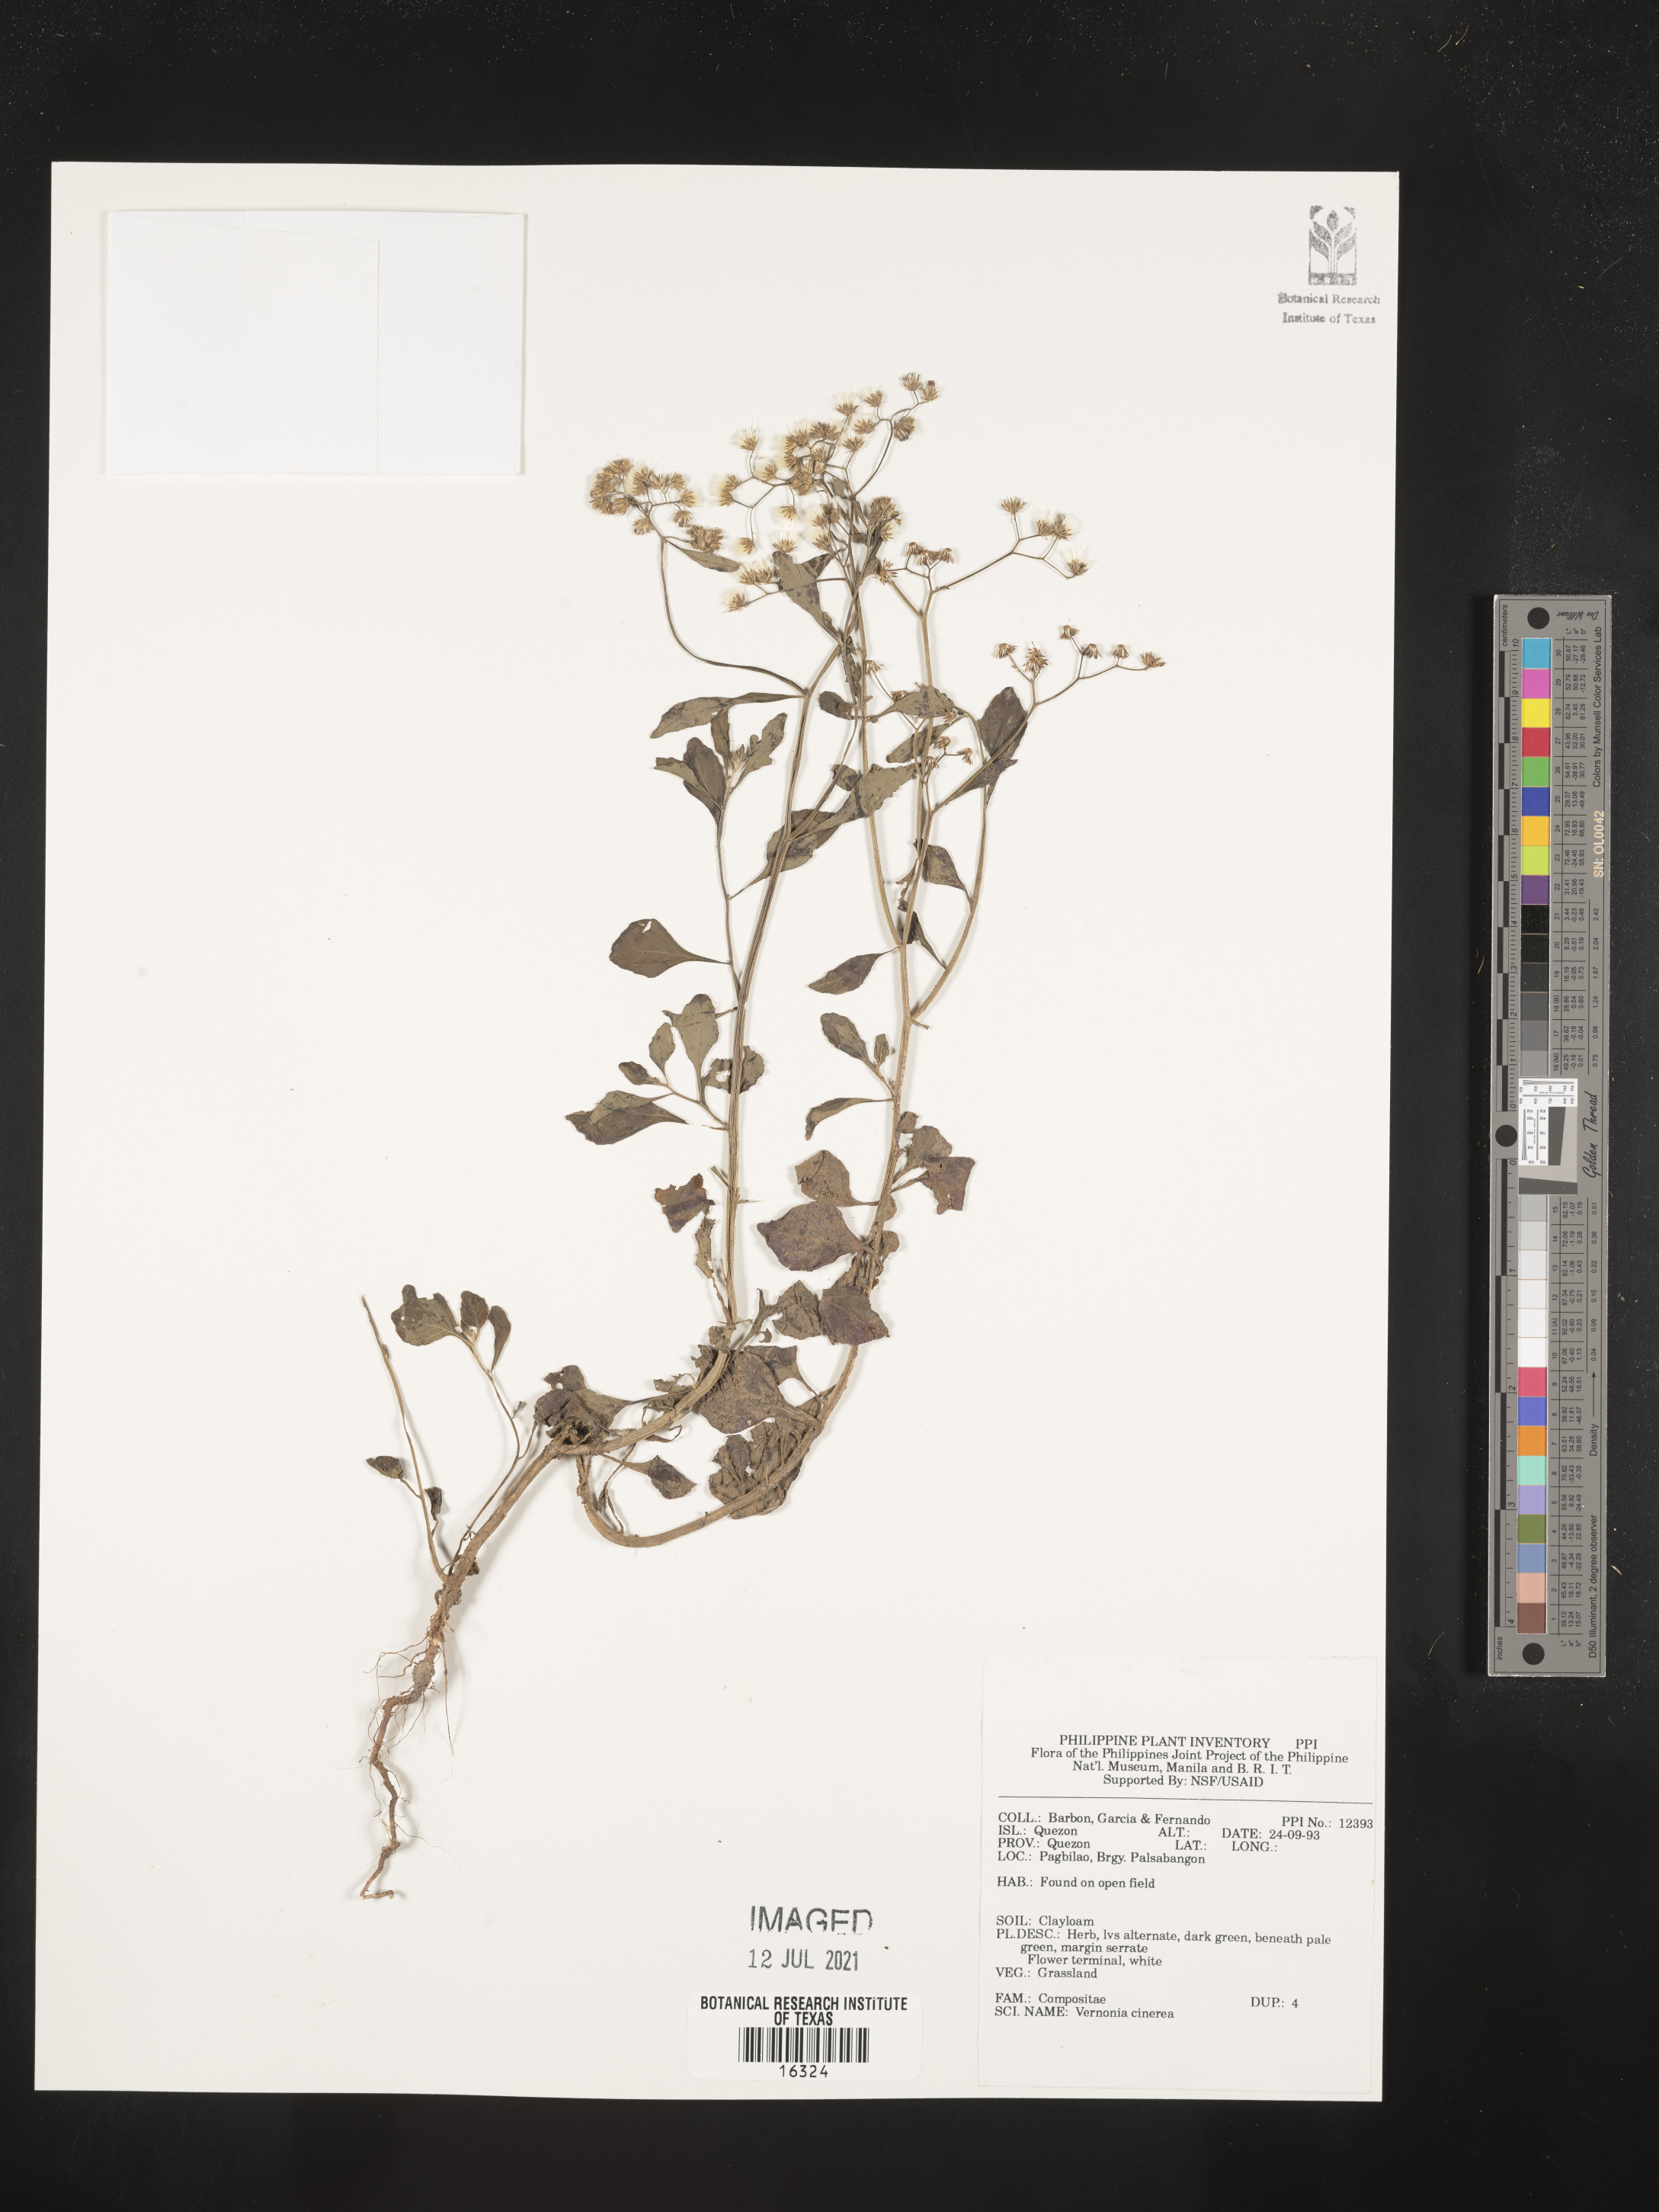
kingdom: Plantae
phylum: Tracheophyta
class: Magnoliopsida
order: Asterales
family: Asteraceae
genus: Cyanthillium
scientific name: Cyanthillium cinereum
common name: Little ironweed
